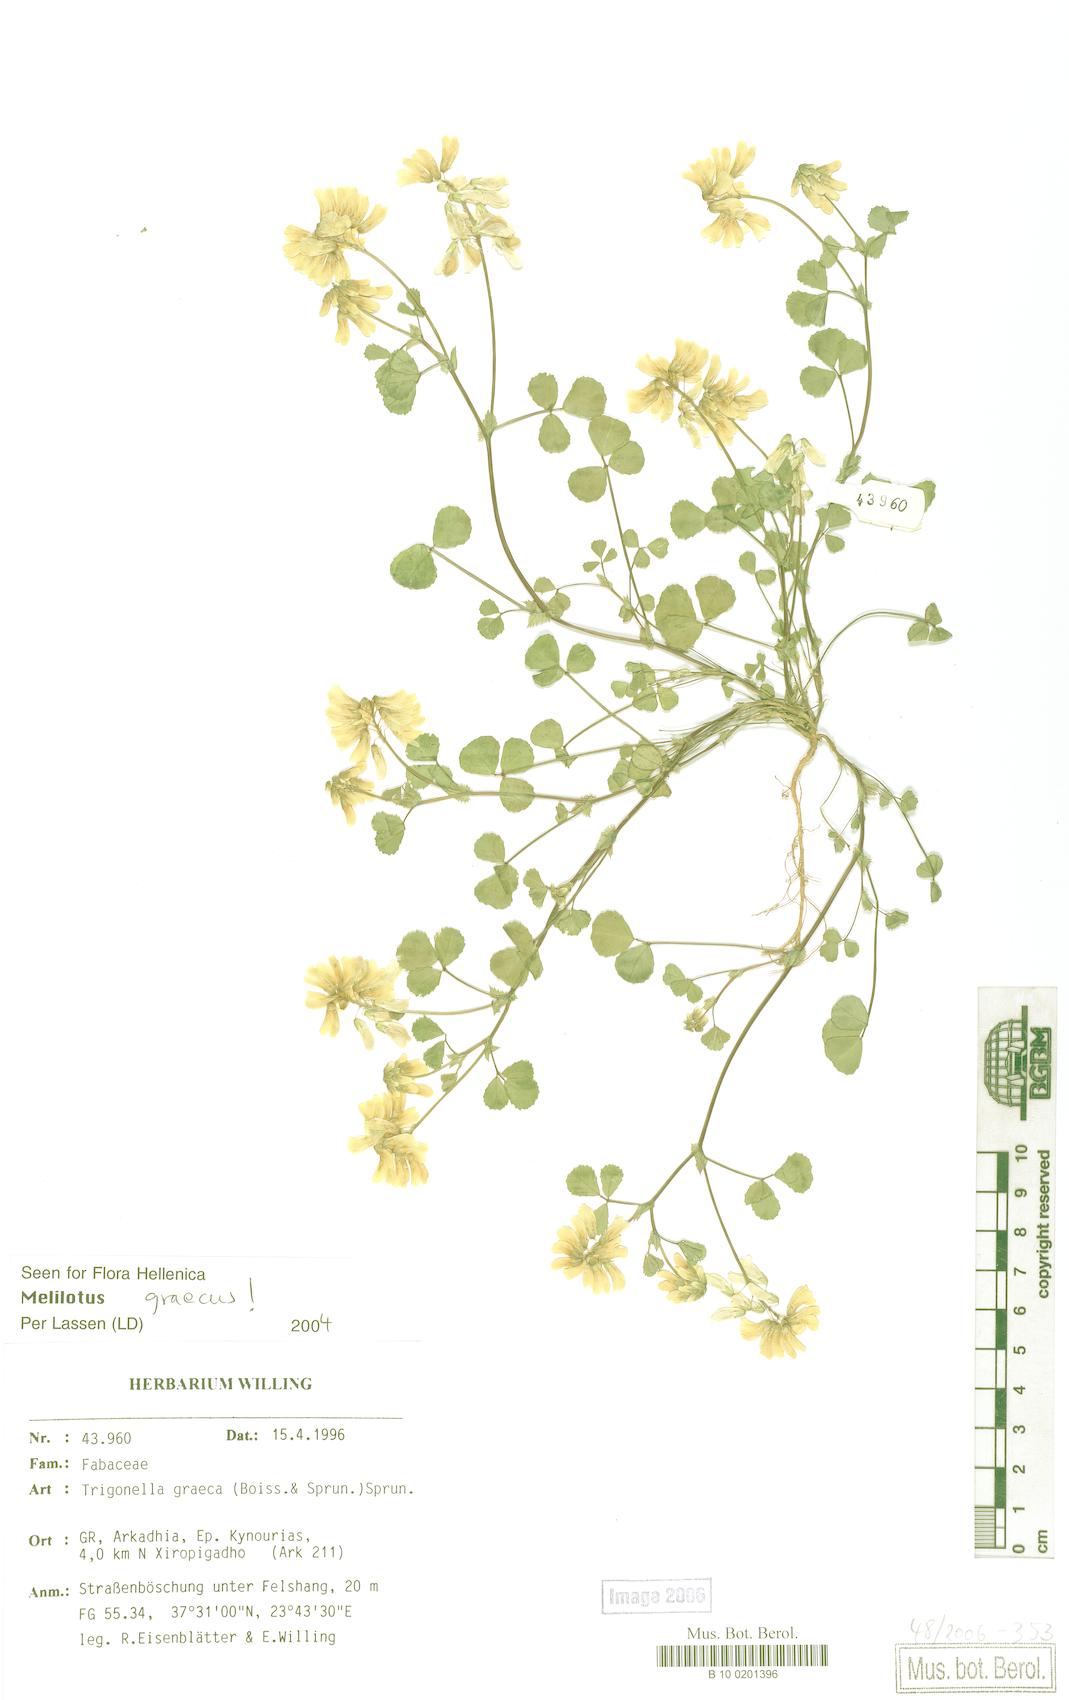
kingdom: Plantae
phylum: Tracheophyta
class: Magnoliopsida
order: Fabales
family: Fabaceae
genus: Trigonella
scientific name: Trigonella graeca
